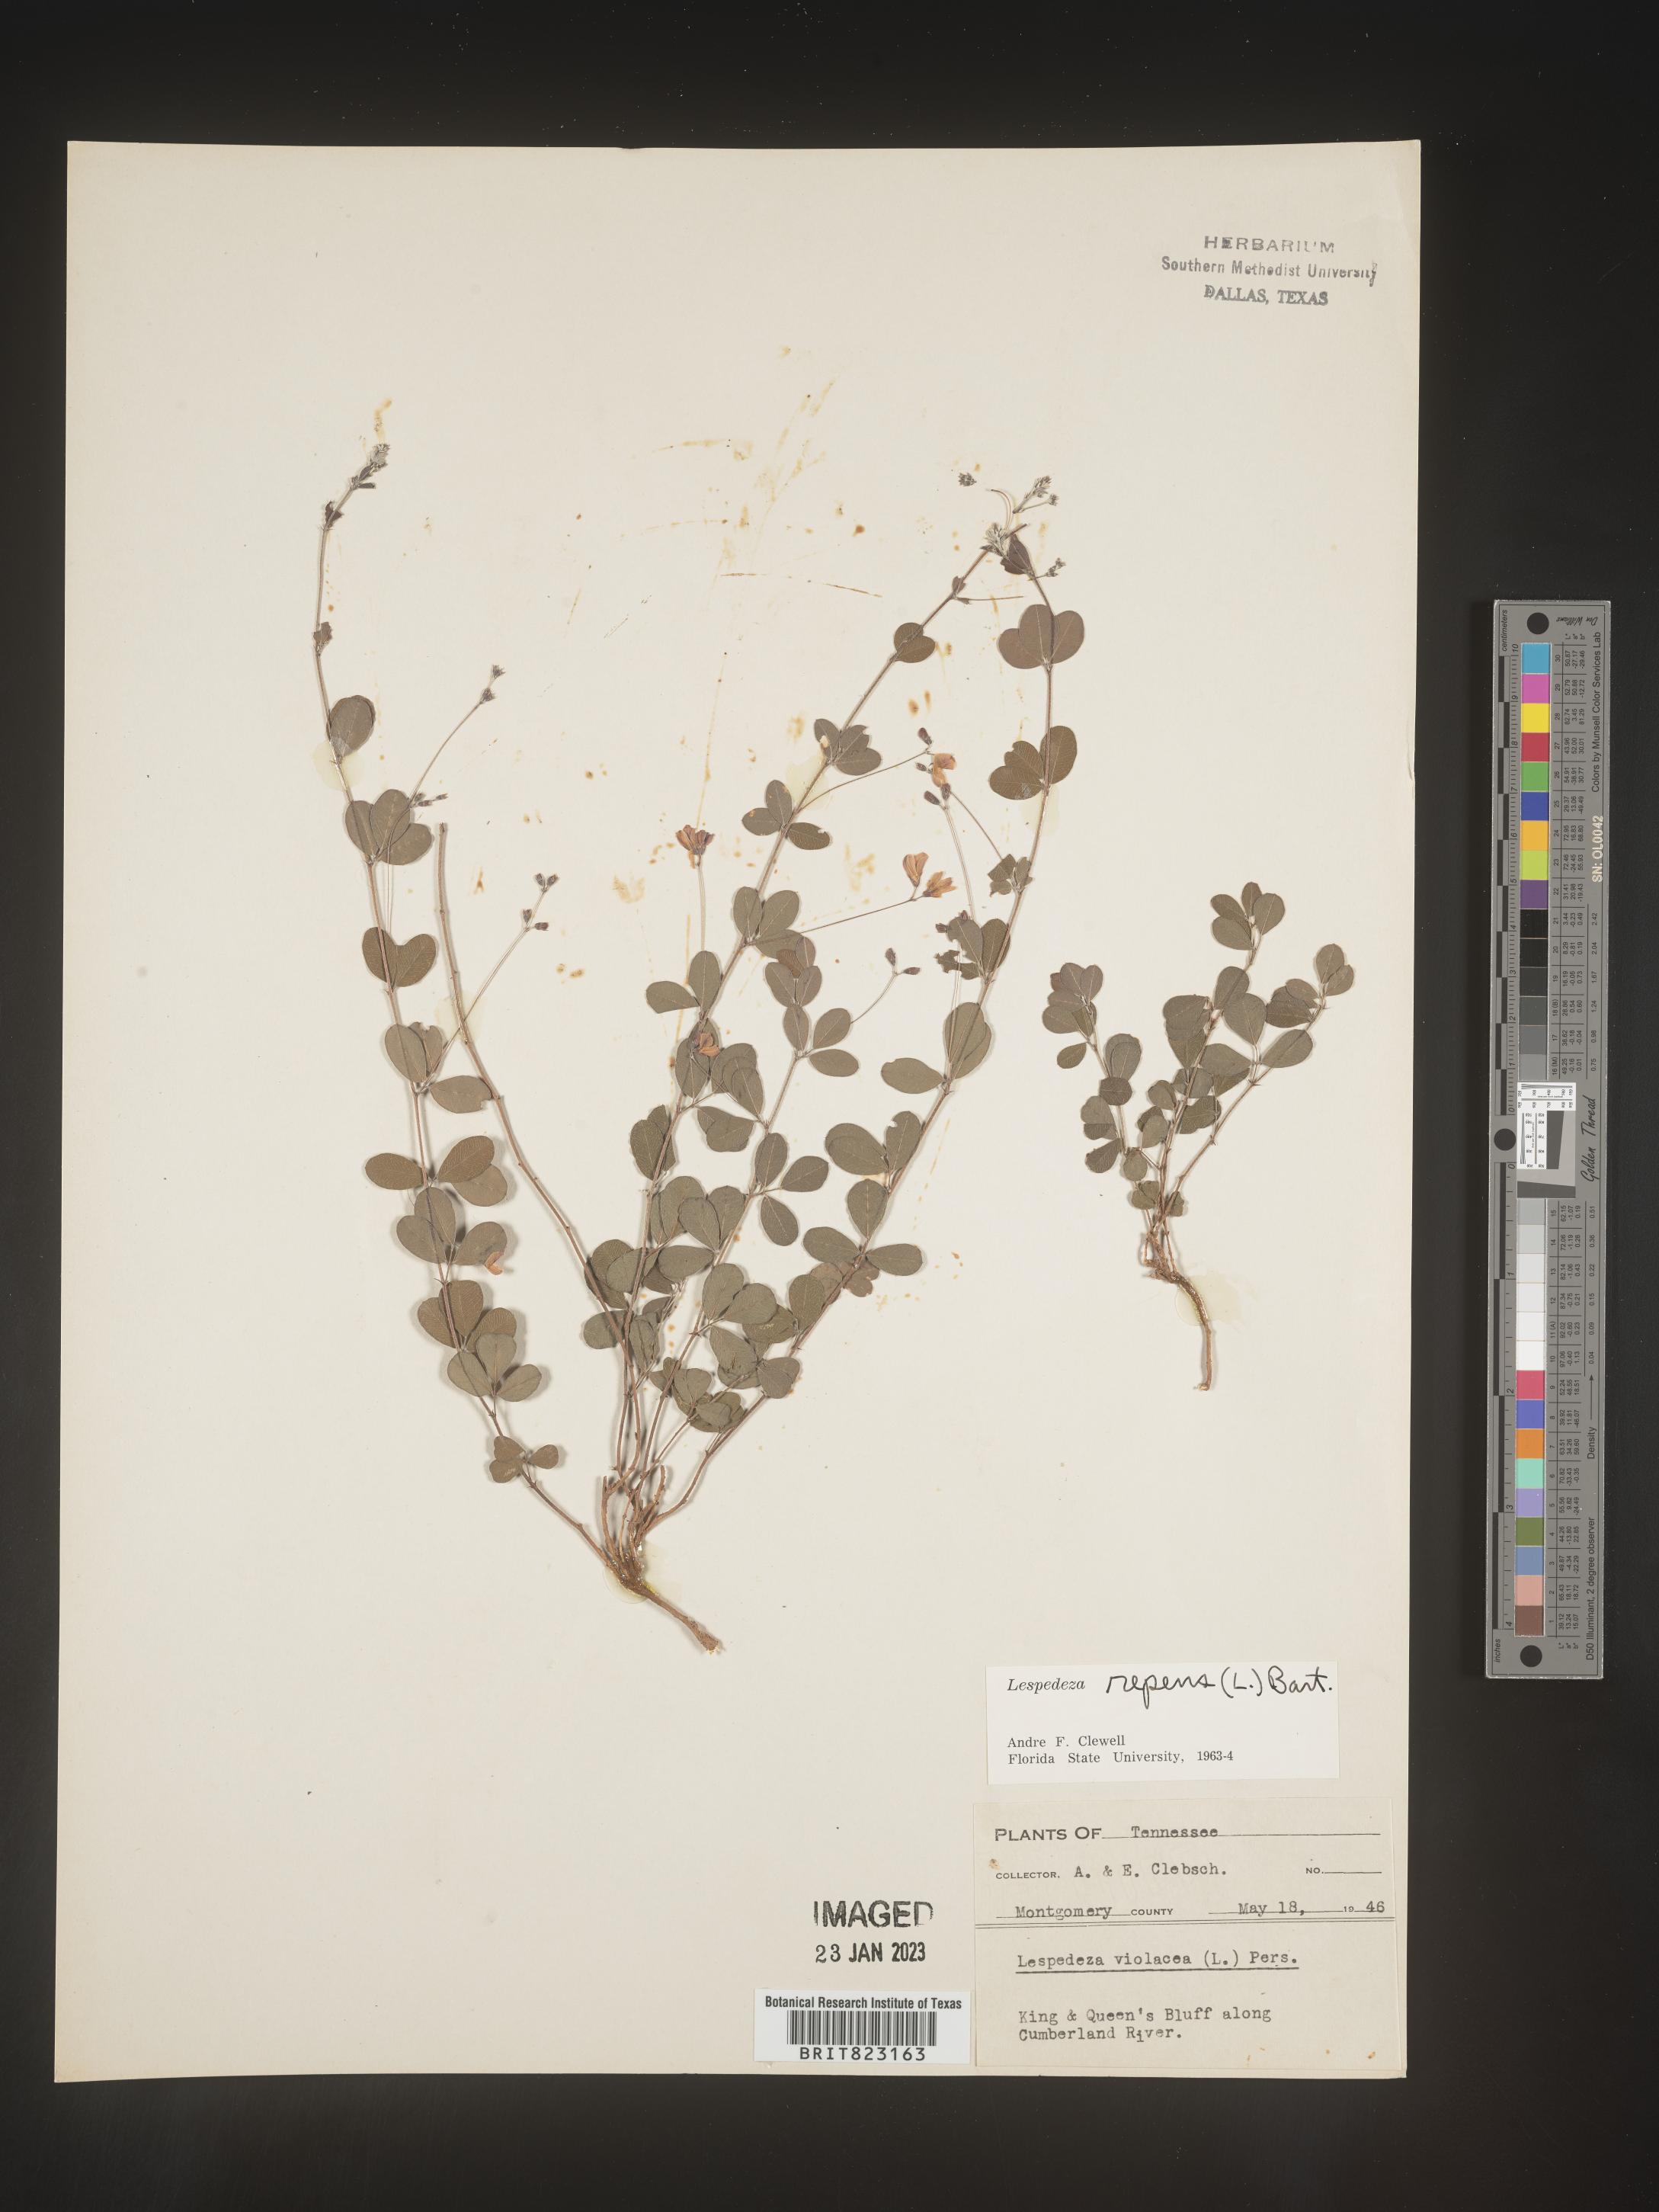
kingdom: Plantae
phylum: Tracheophyta
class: Magnoliopsida
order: Fabales
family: Fabaceae
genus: Lespedeza
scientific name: Lespedeza repens
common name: Creeping bush-clover
